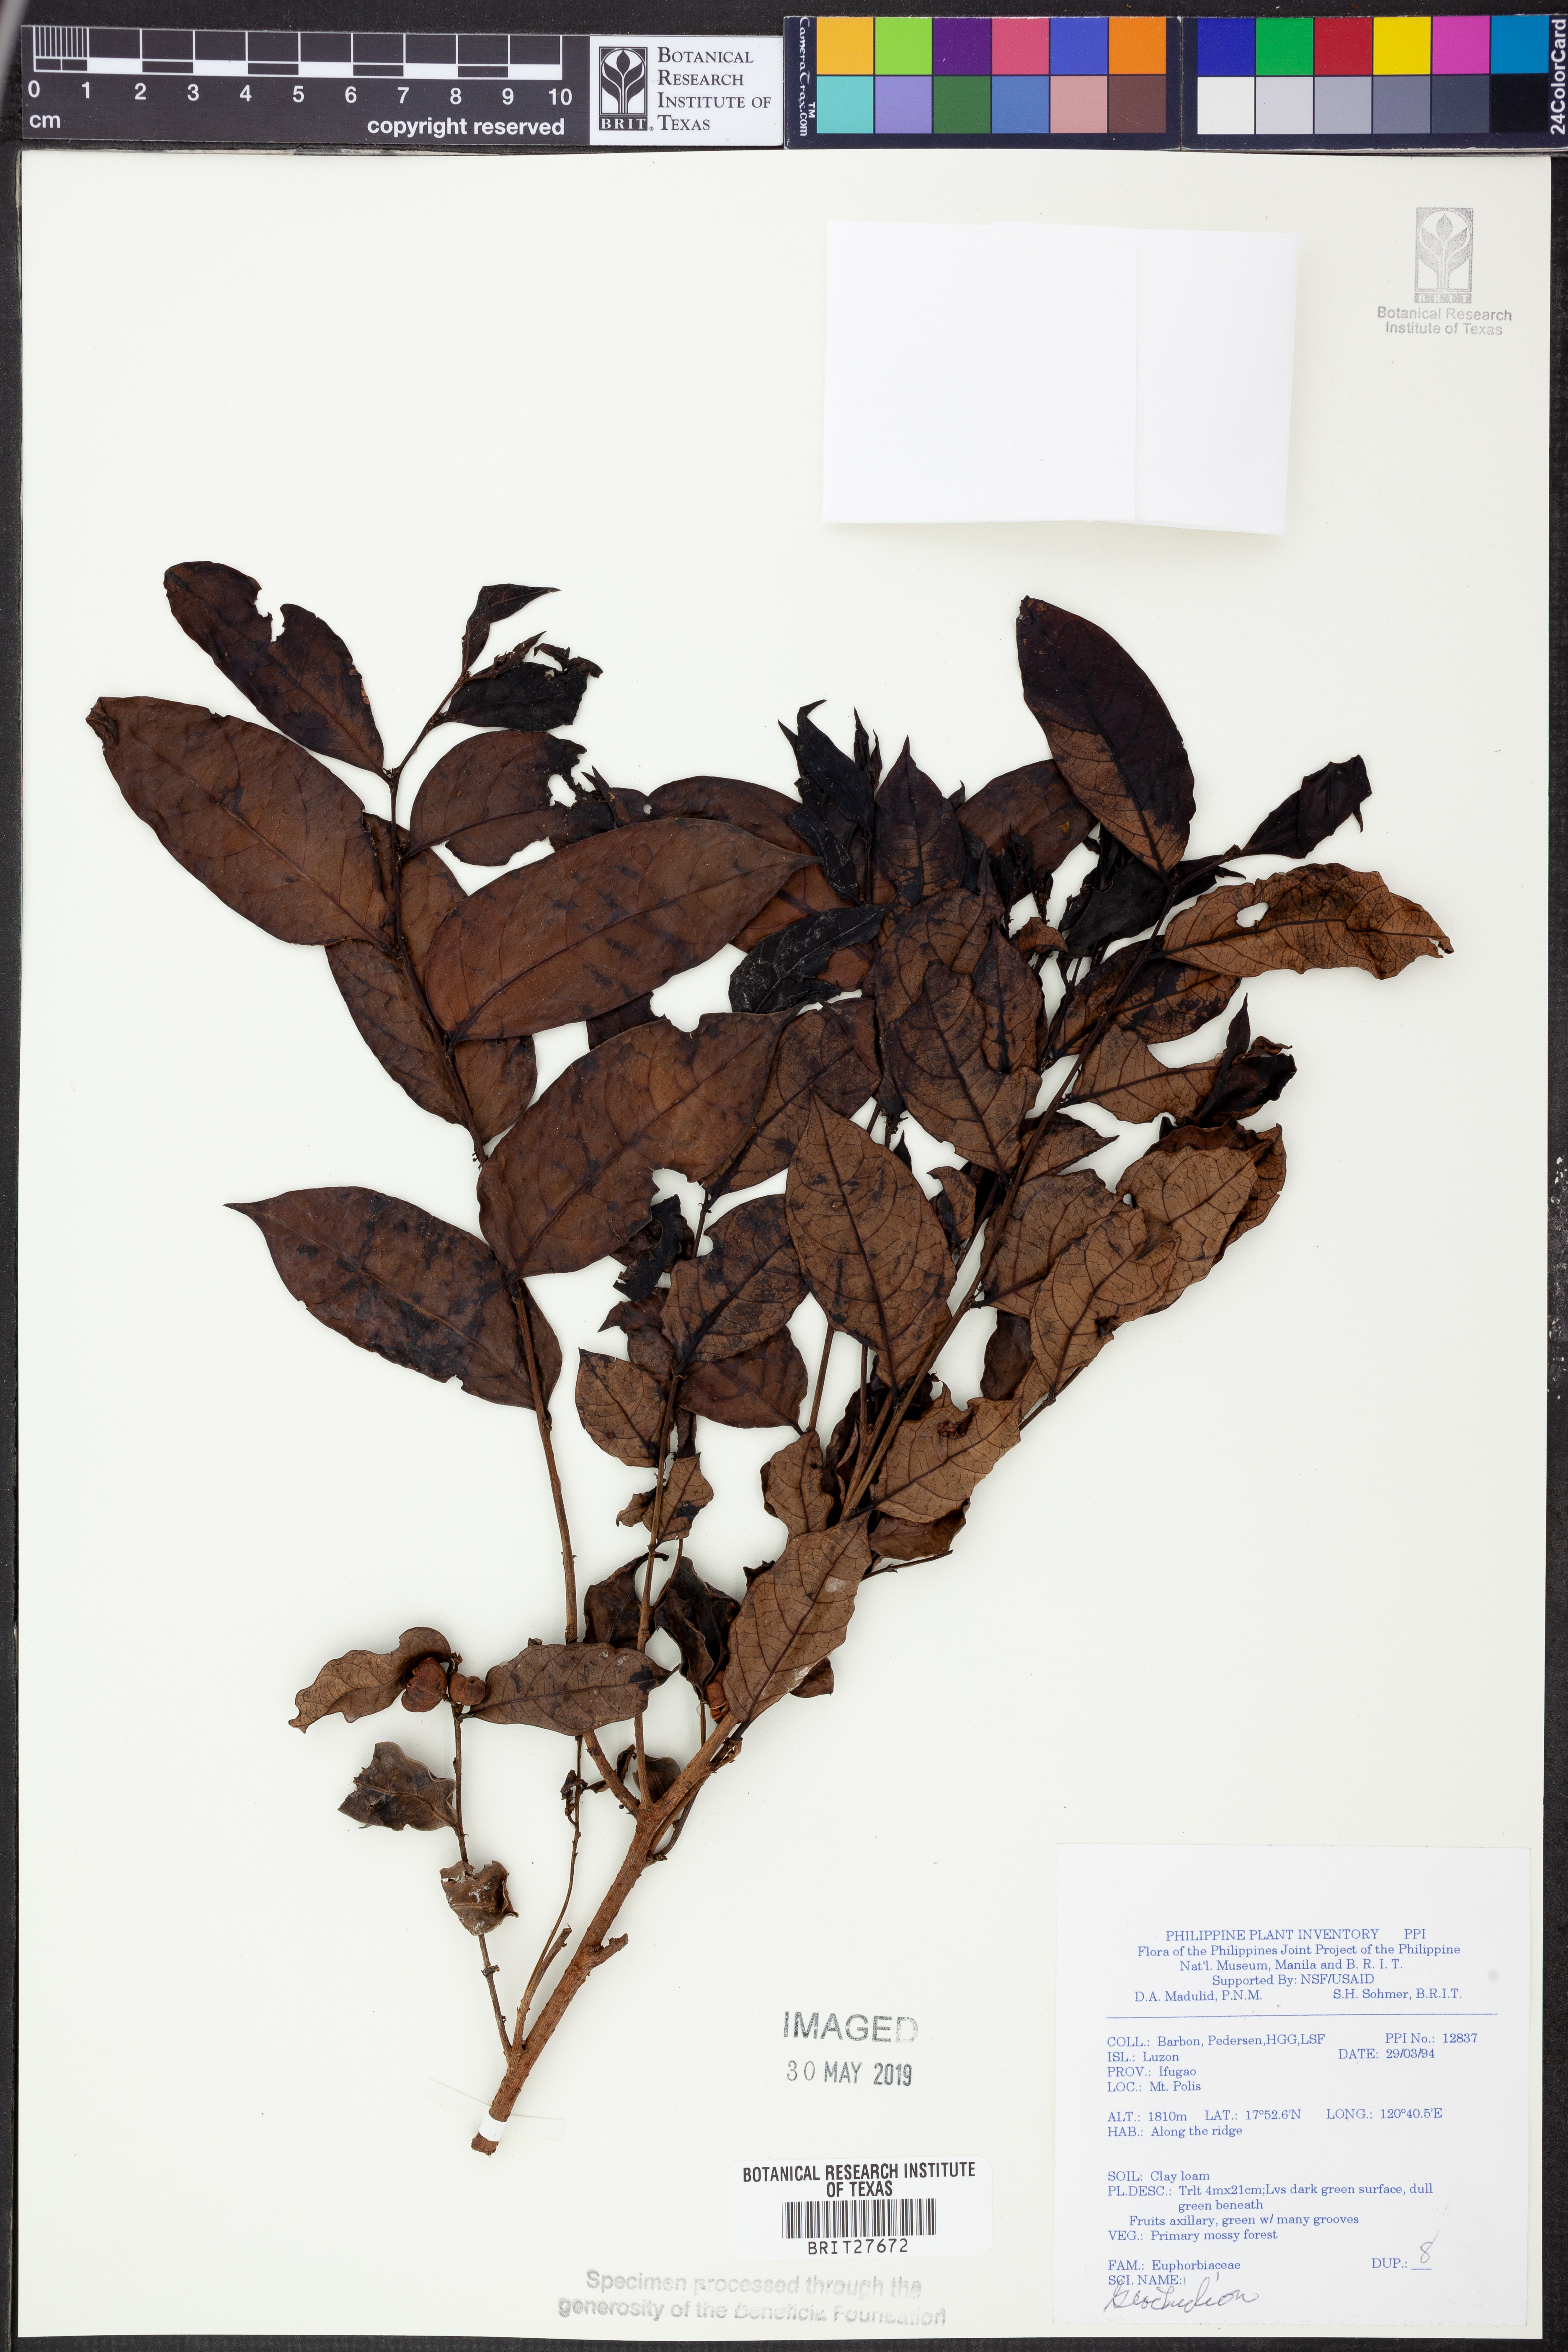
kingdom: Plantae
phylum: Tracheophyta
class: Magnoliopsida
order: Malpighiales
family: Phyllanthaceae
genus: Glochidion
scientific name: Glochidion
